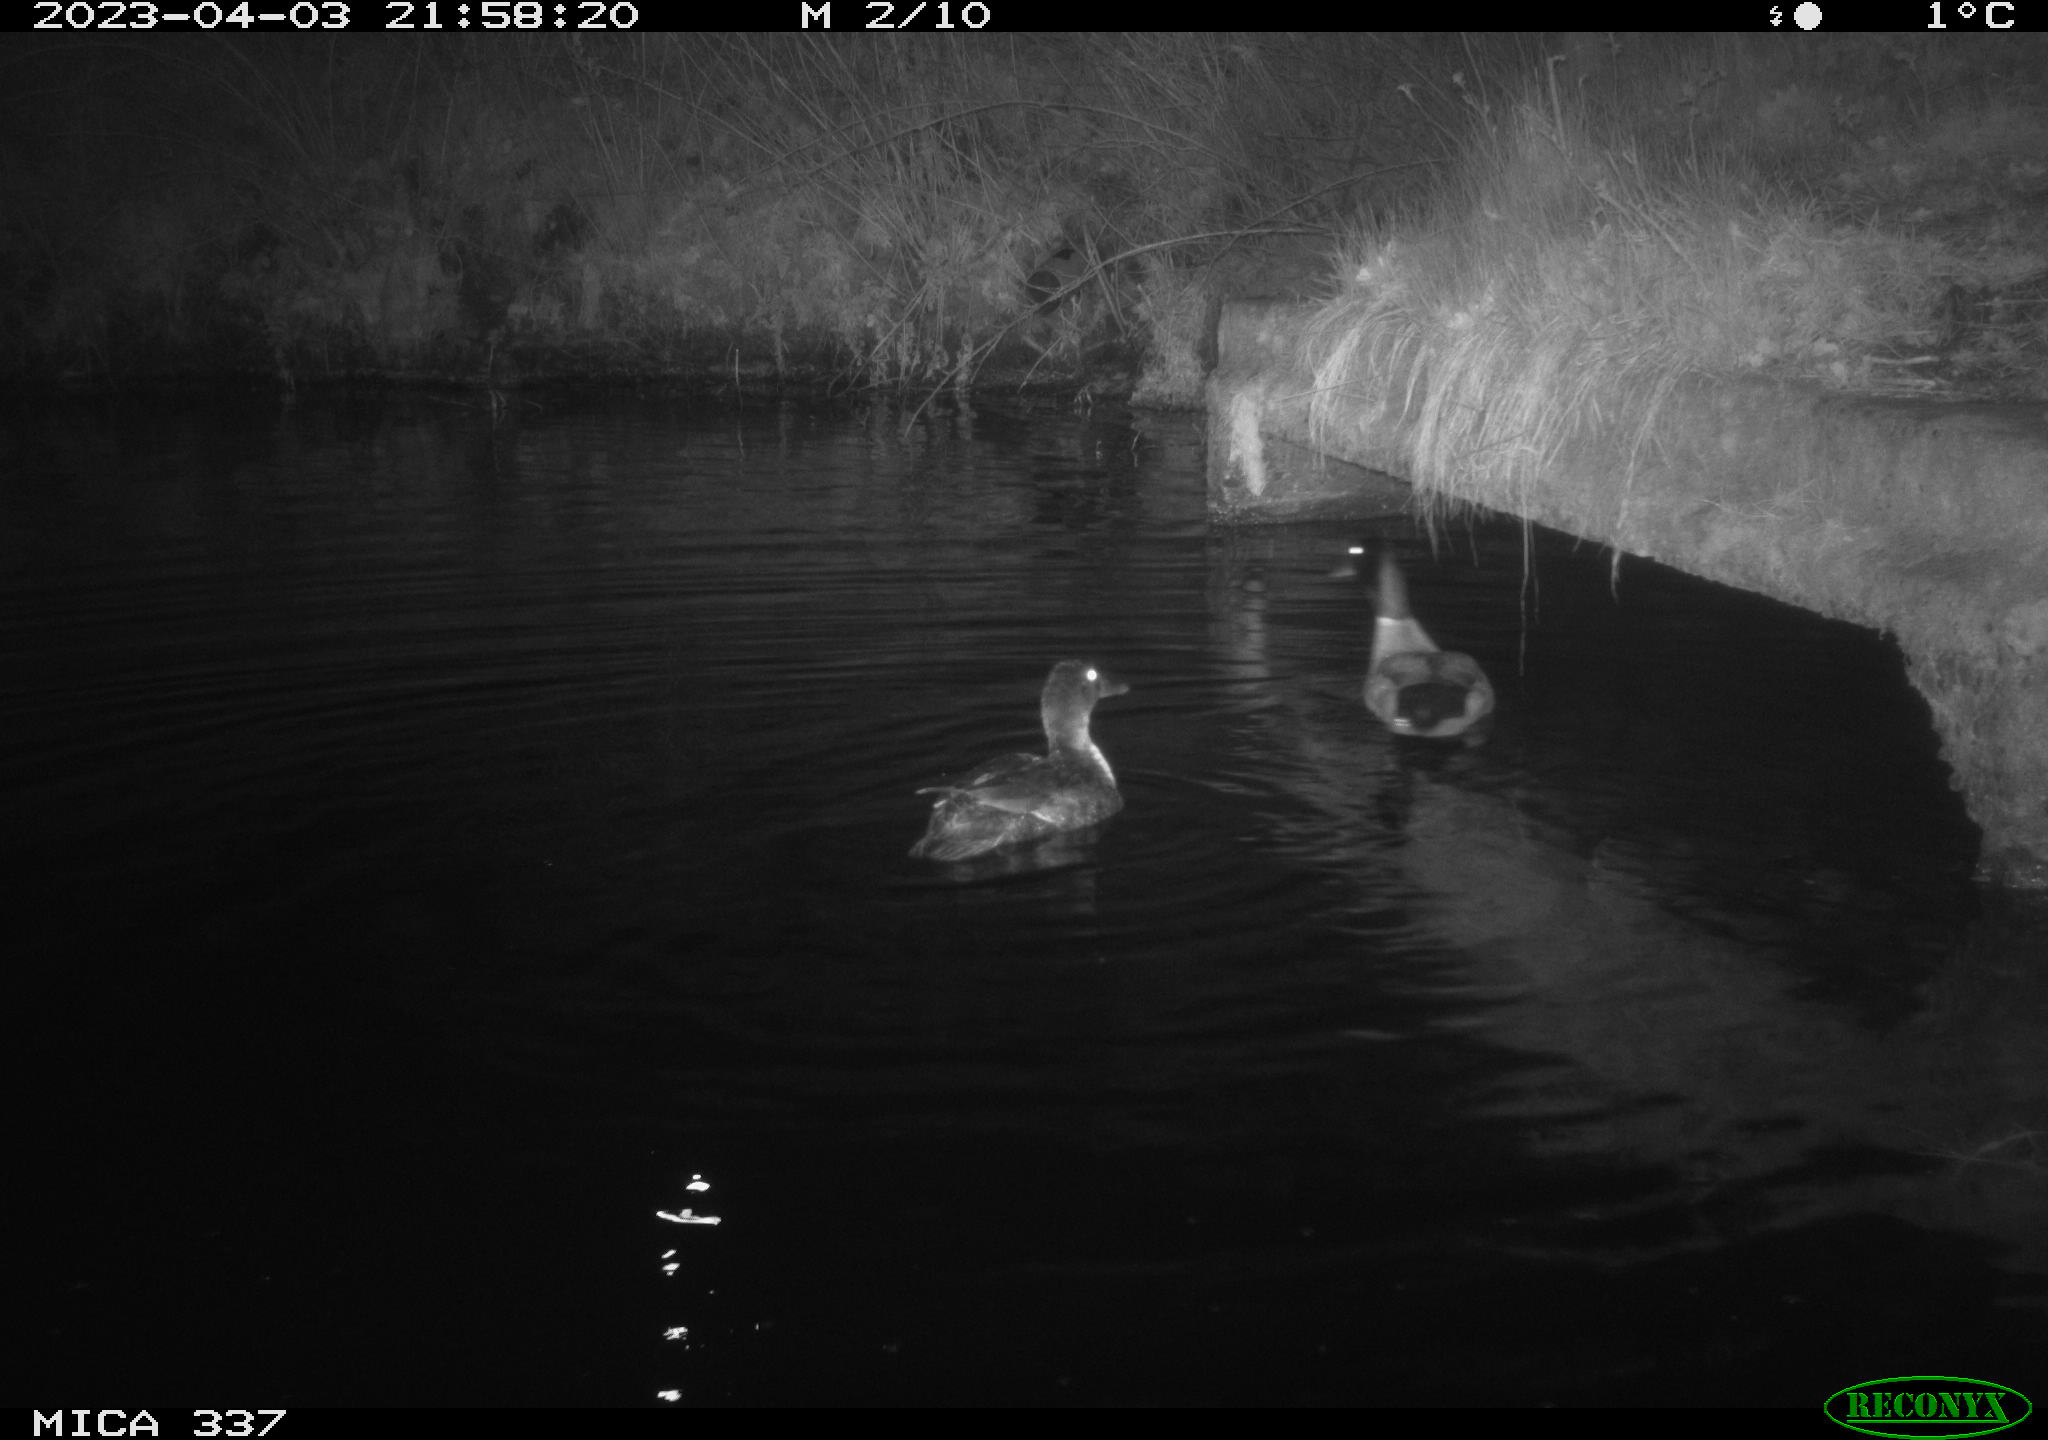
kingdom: Animalia
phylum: Chordata
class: Aves
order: Anseriformes
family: Anatidae
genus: Anas
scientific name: Anas platyrhynchos
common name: Mallard
